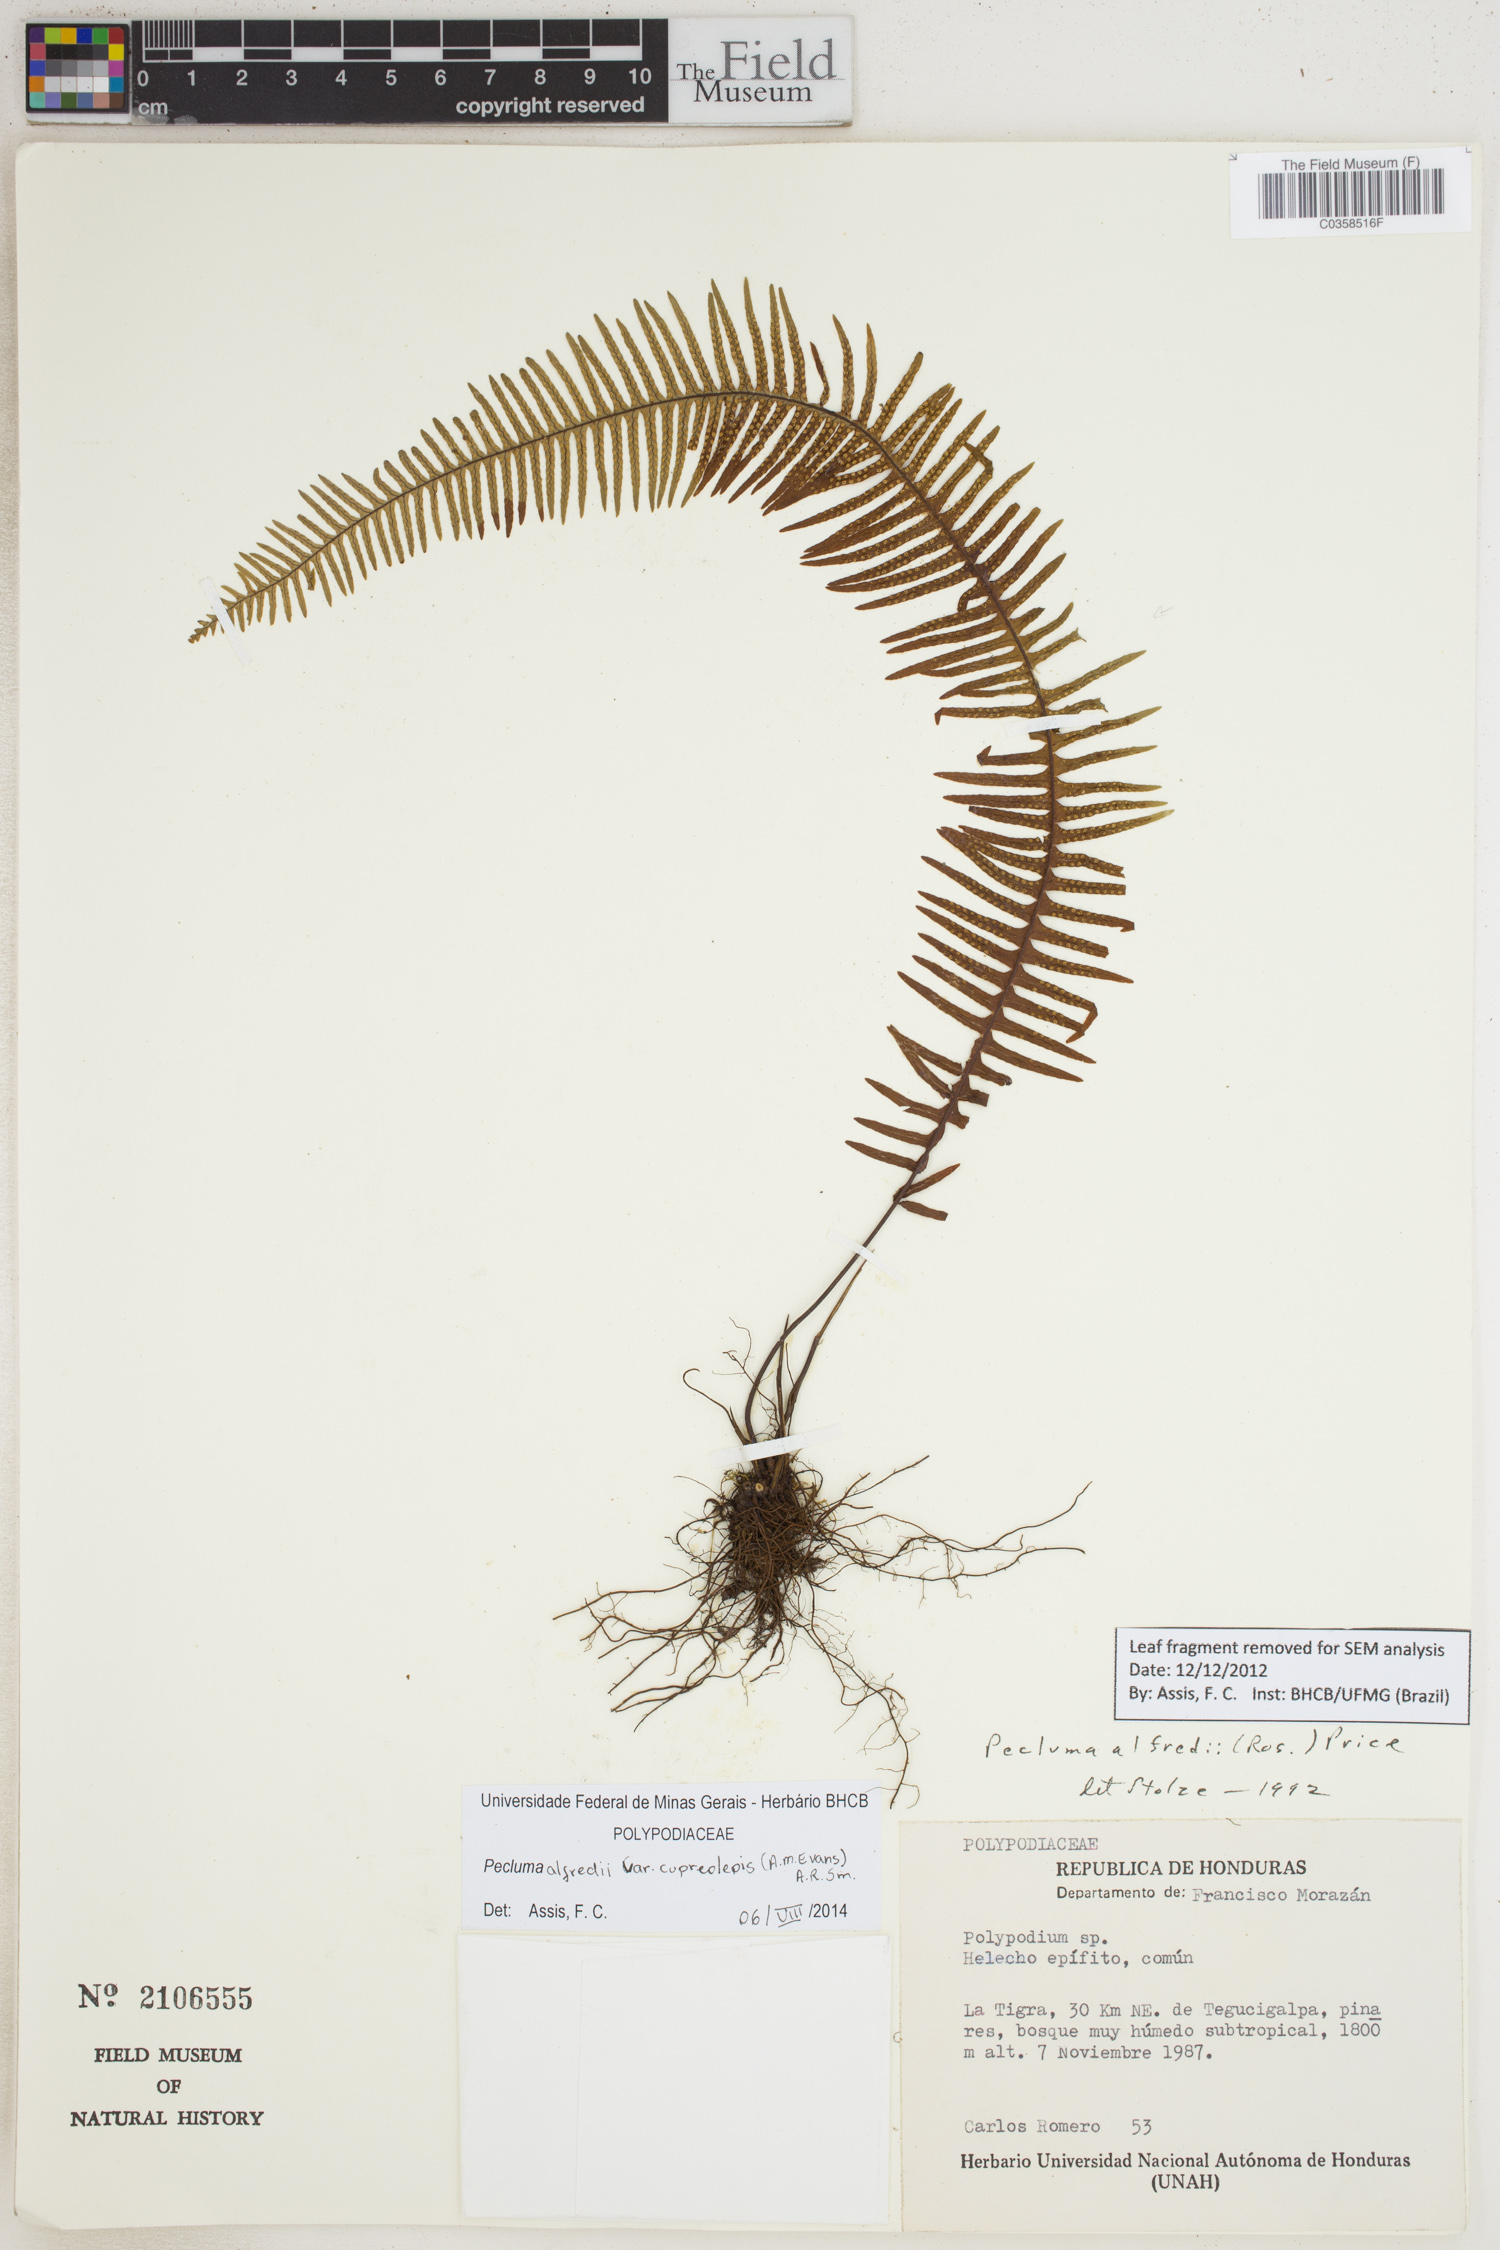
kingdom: Plantae
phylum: Tracheophyta
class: Polypodiopsida
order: Polypodiales
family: Polypodiaceae
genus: Pecluma
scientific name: Pecluma alfredii
